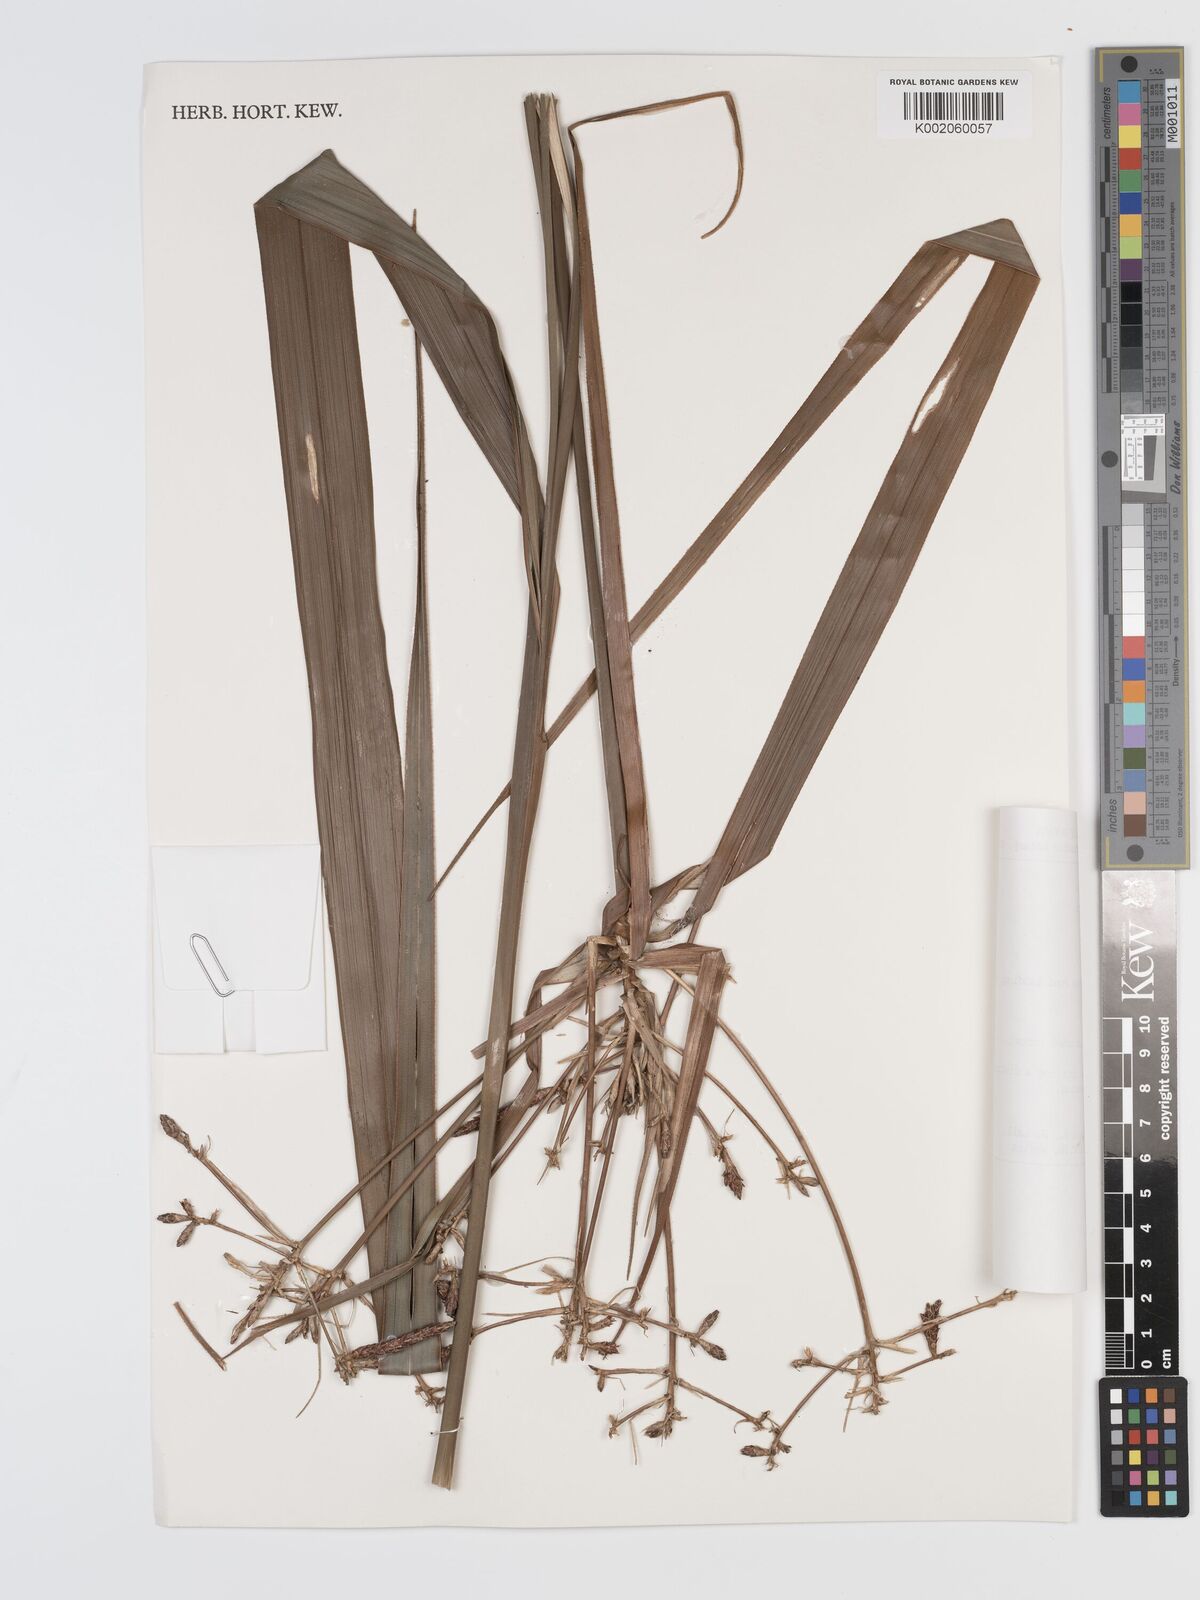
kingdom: Plantae
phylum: Tracheophyta
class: Liliopsida
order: Poales
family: Cyperaceae
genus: Diplasia
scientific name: Diplasia karatifolia
